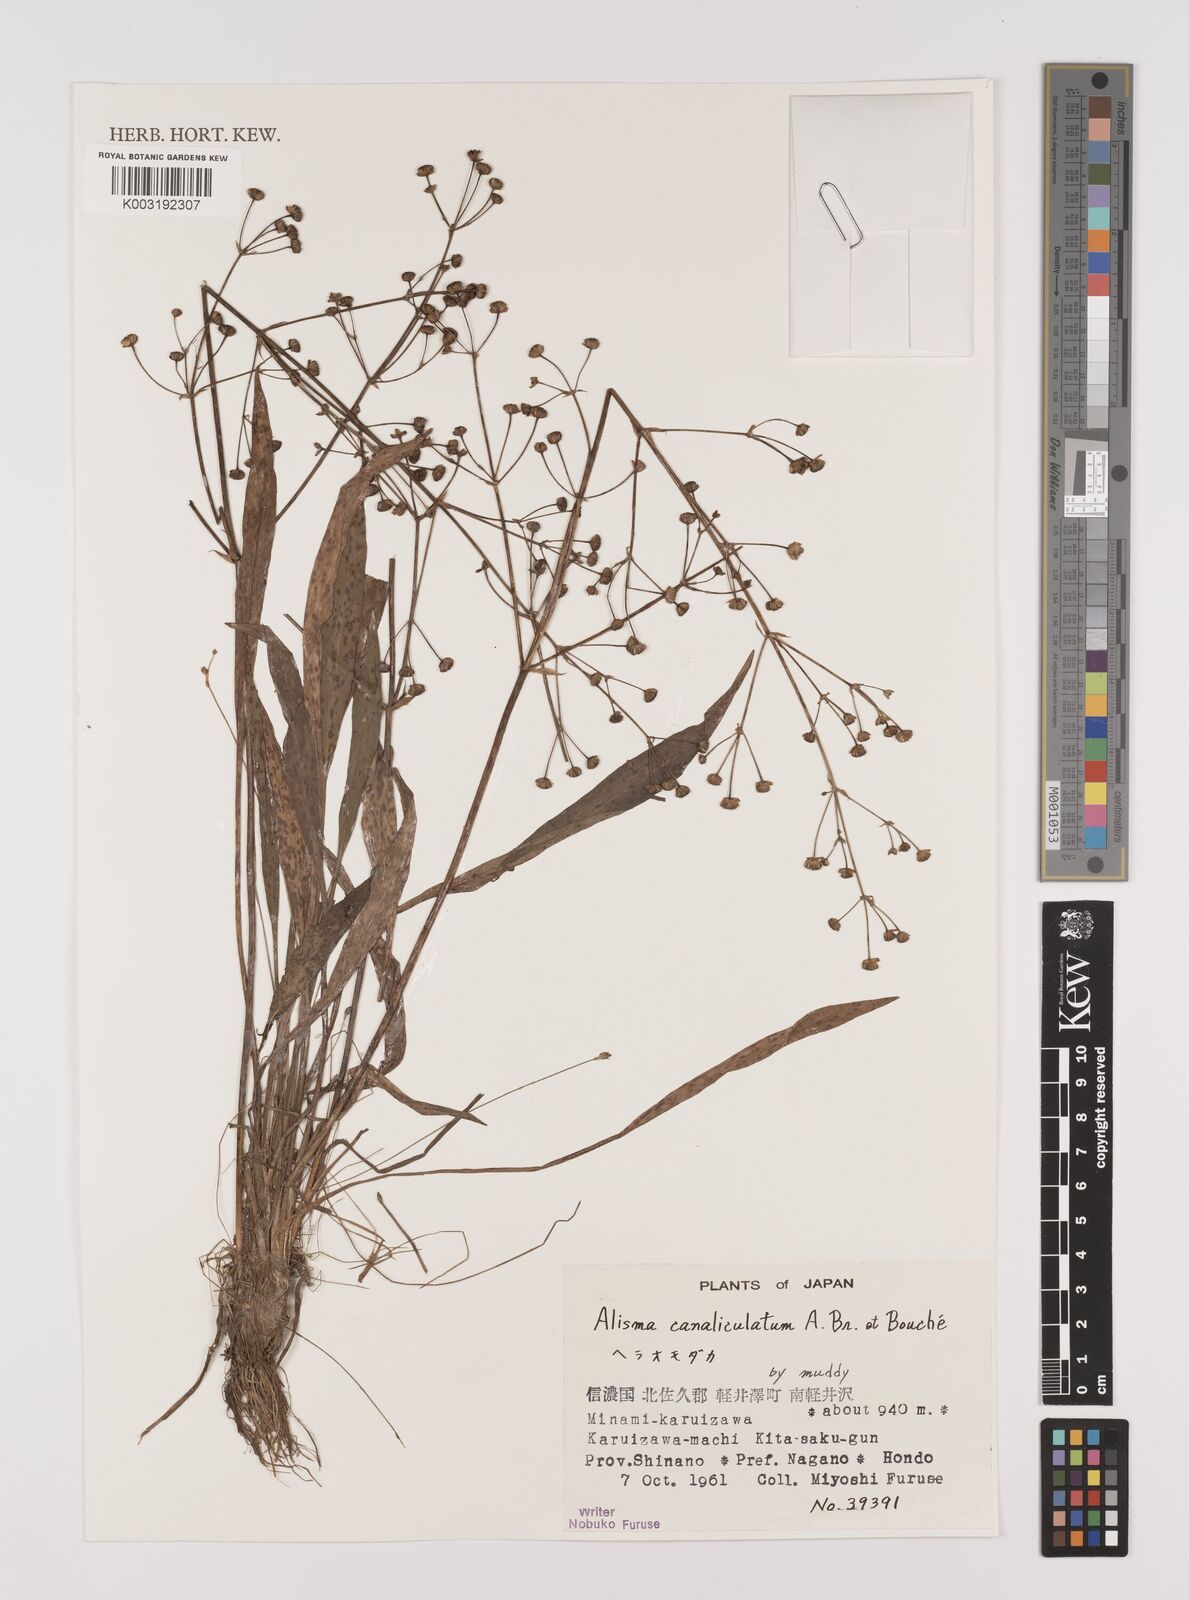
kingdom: Plantae
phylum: Tracheophyta
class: Liliopsida
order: Alismatales
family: Alismataceae
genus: Alisma
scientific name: Alisma canaliculatum
